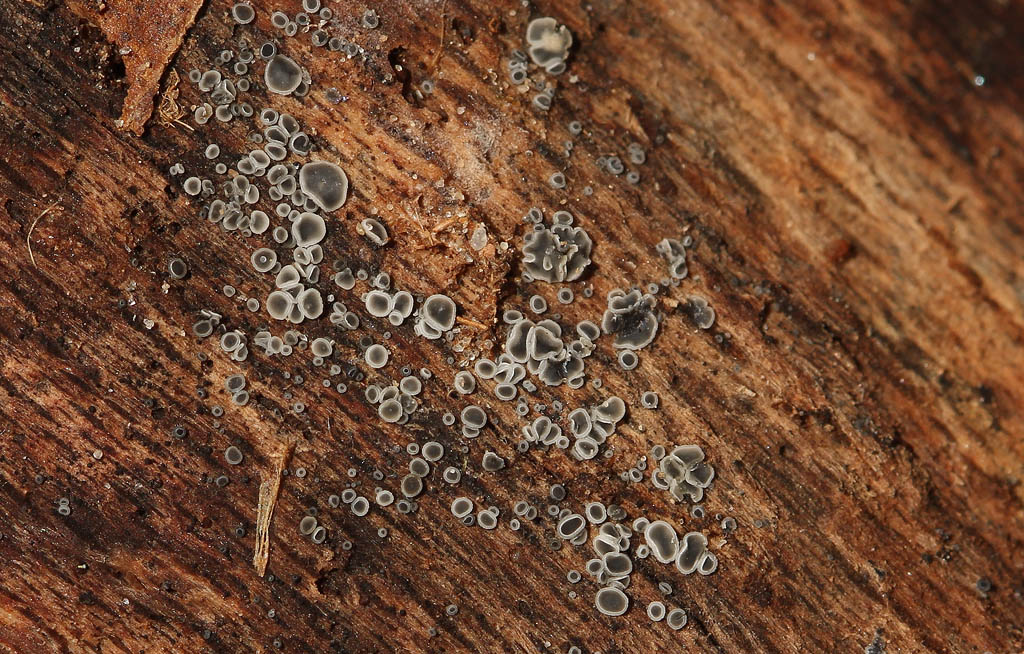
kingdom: Fungi
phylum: Ascomycota
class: Leotiomycetes
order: Helotiales
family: Mollisiaceae
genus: Mollisia
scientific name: Mollisia cinerea
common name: almindelig gråskive
